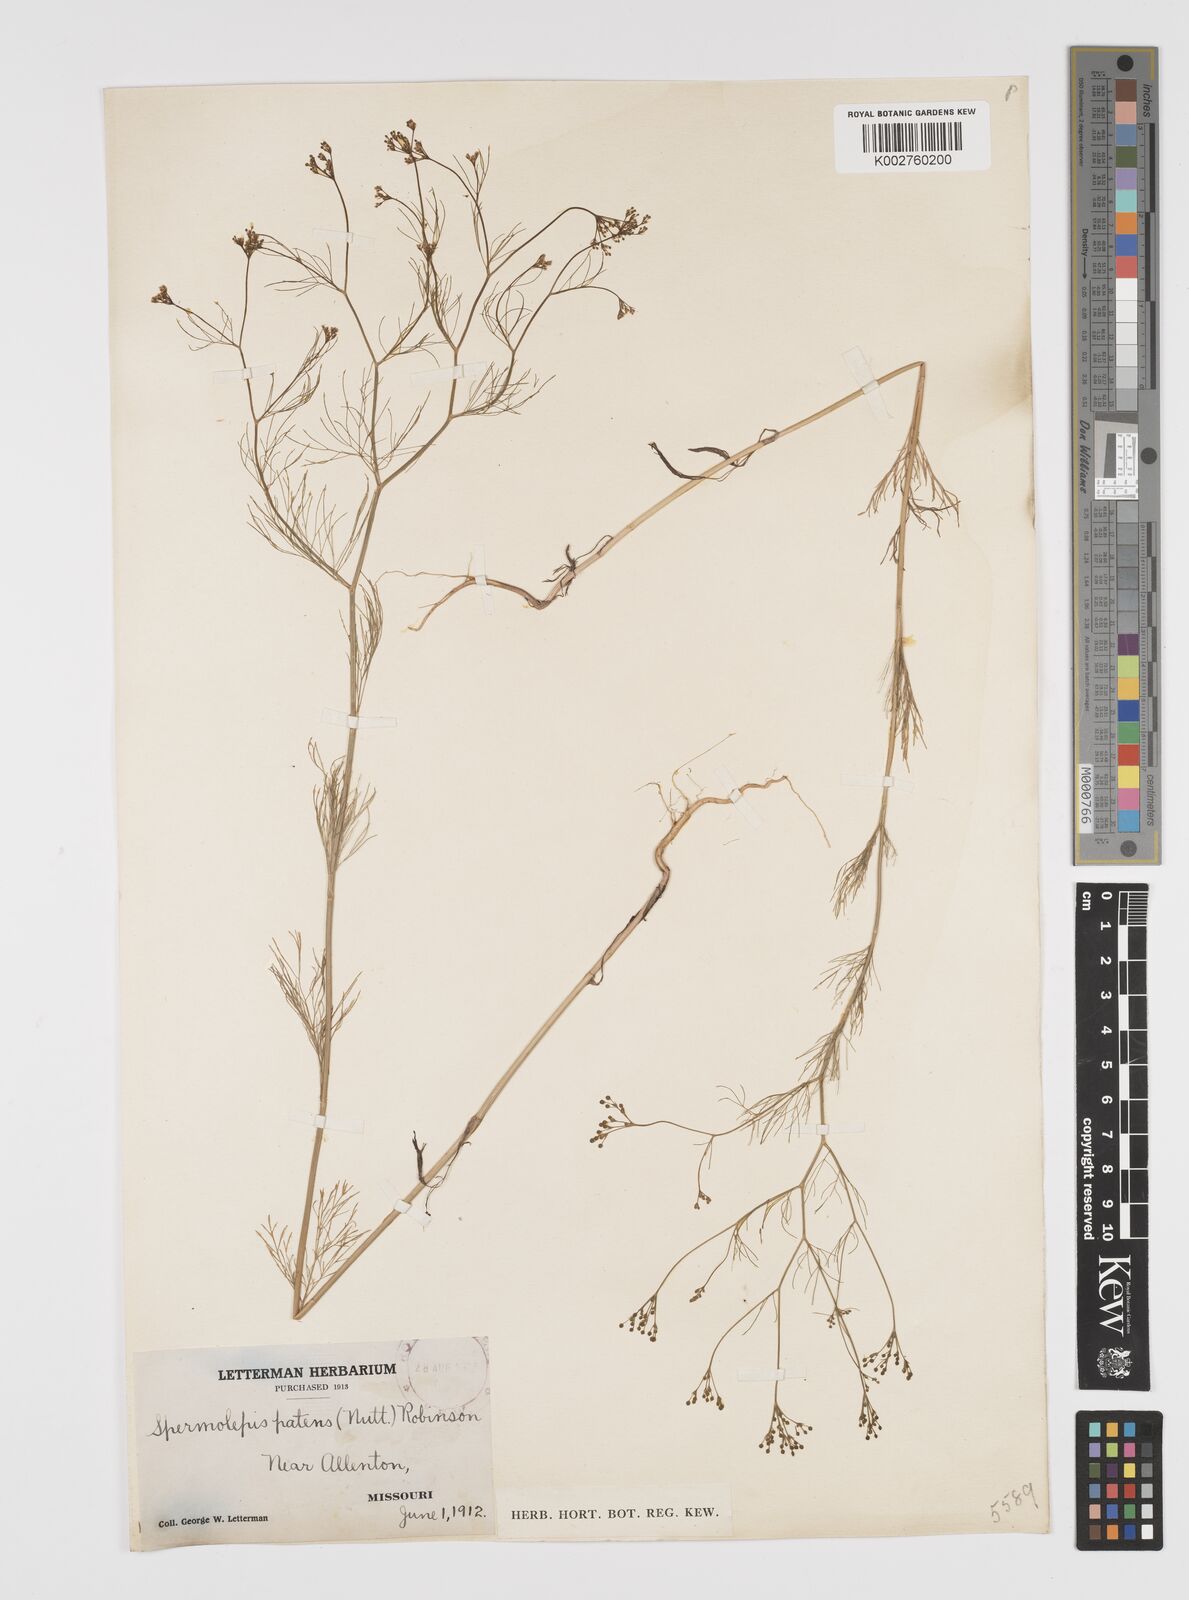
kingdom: Plantae
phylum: Tracheophyta
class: Magnoliopsida
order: Apiales
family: Apiaceae
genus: Spermolepis
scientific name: Spermolepis inermis
